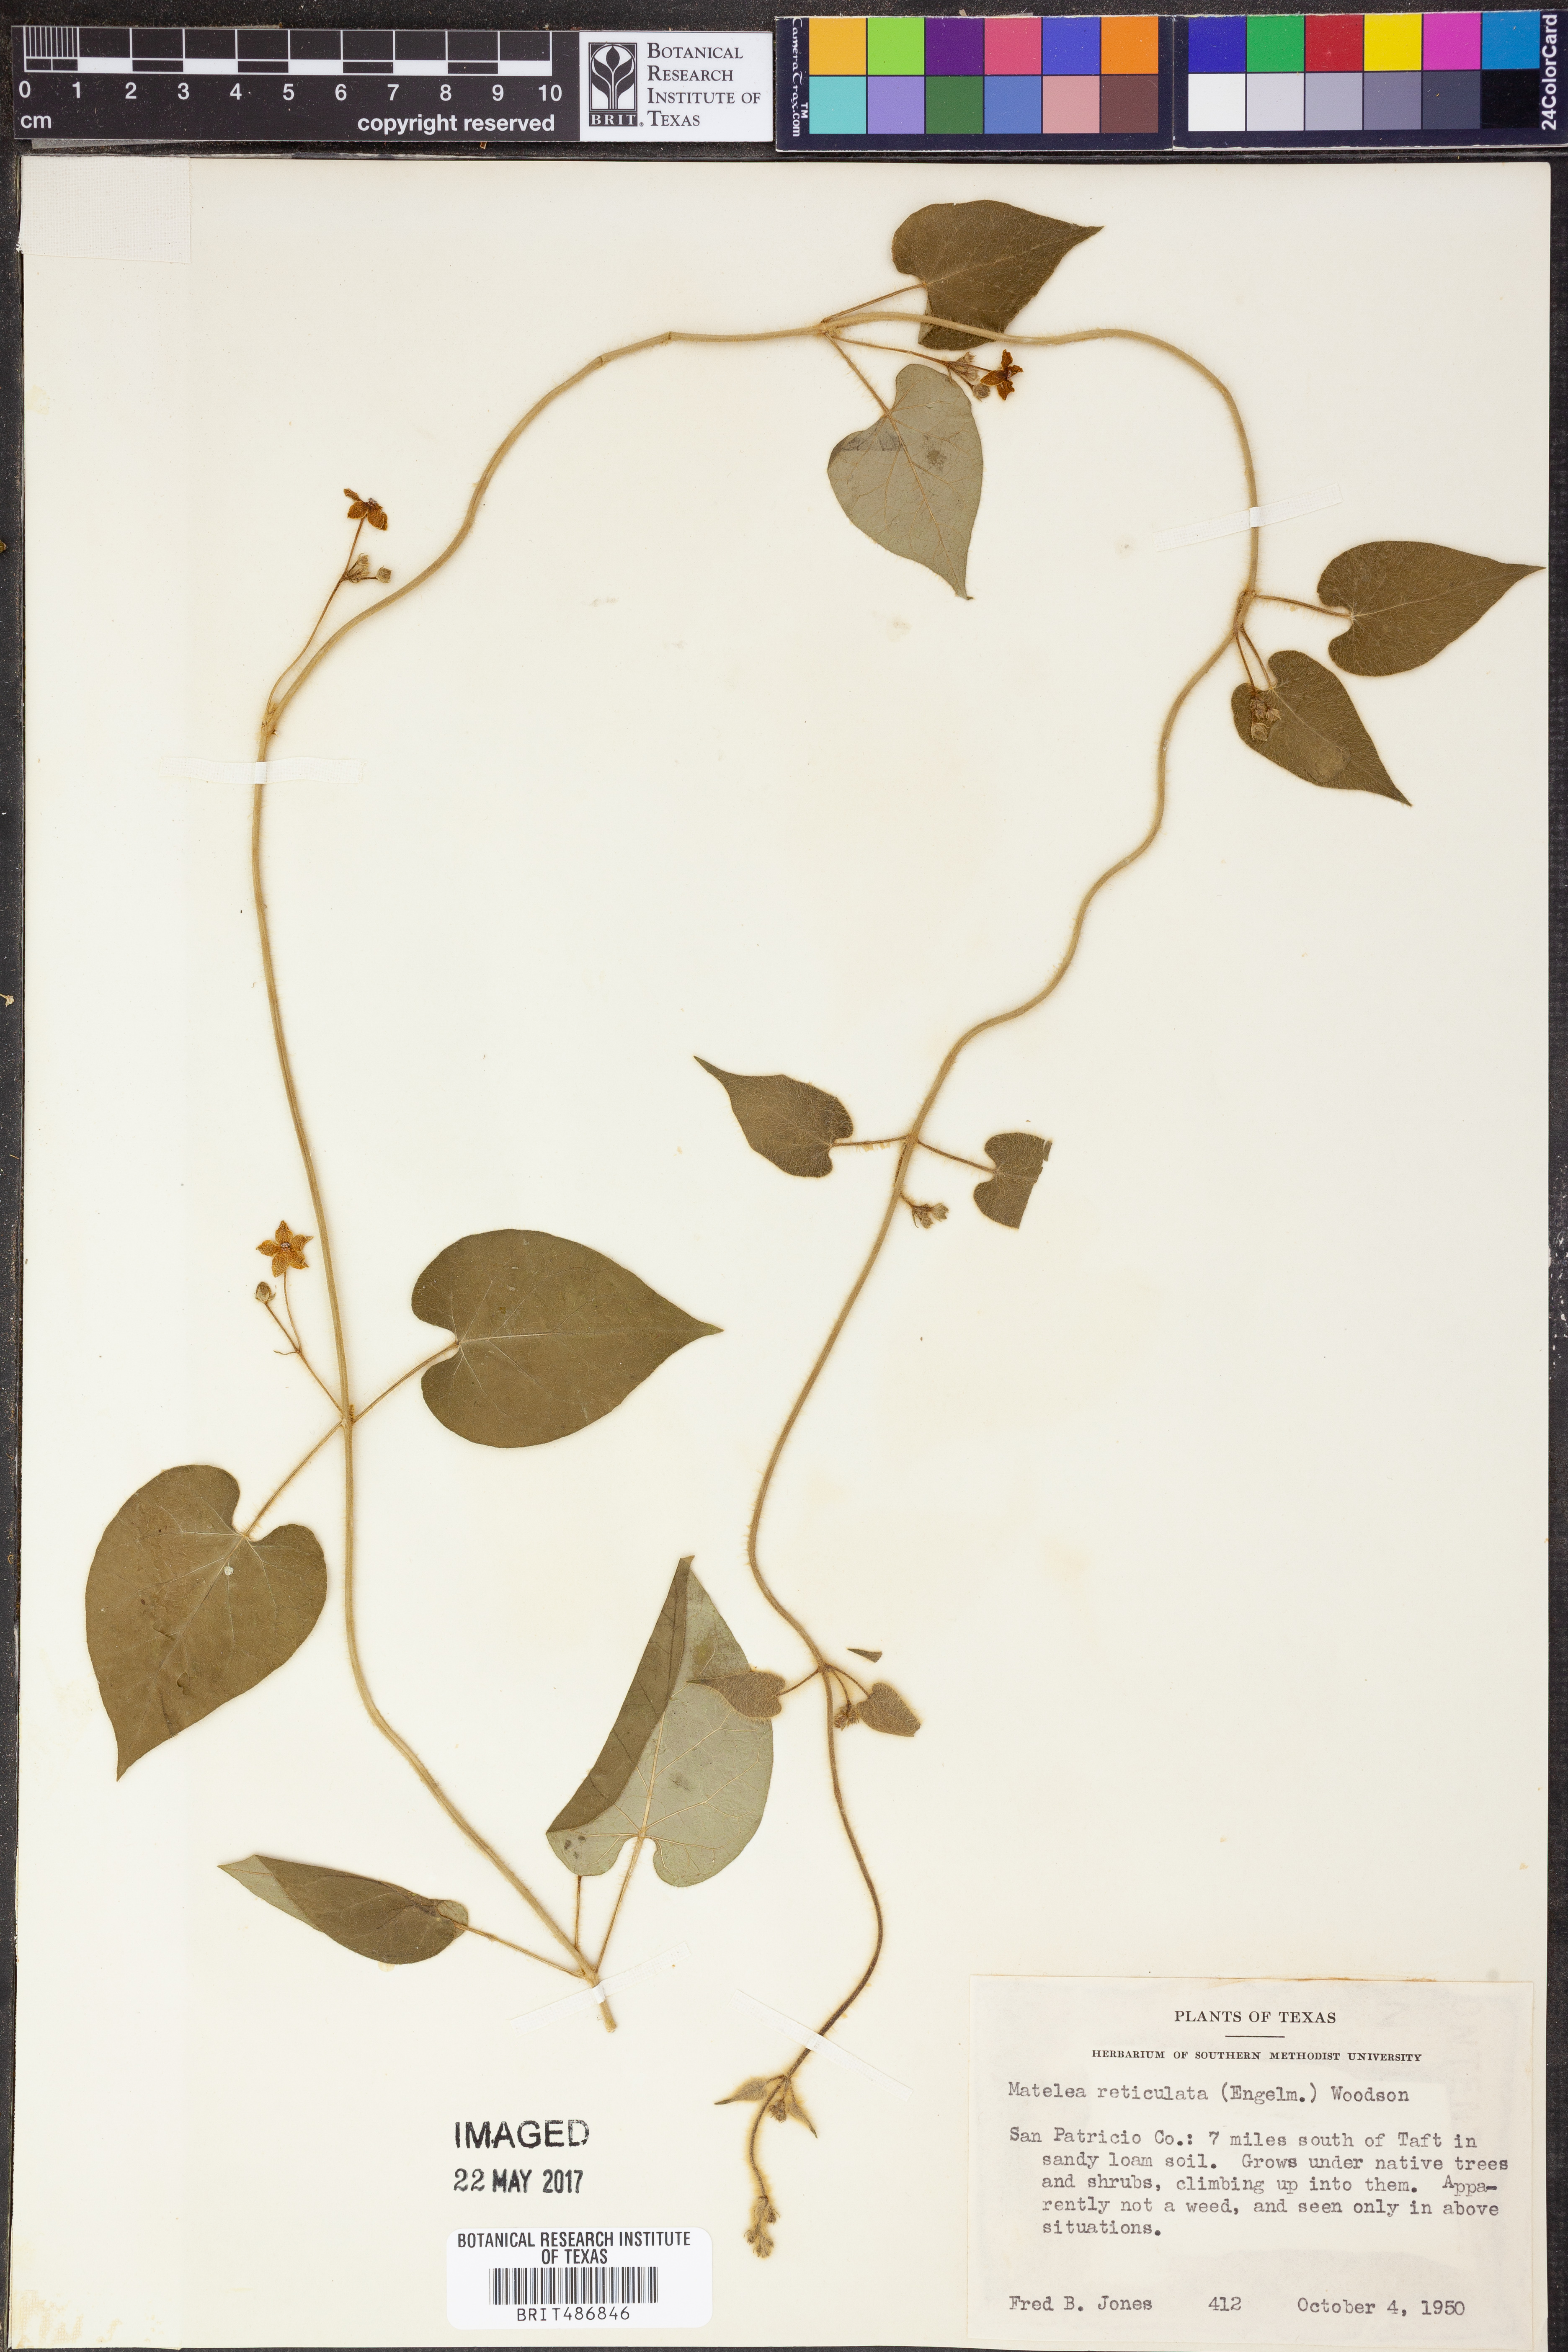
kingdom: Plantae
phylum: Tracheophyta
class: Magnoliopsida
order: Gentianales
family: Apocynaceae
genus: Dictyanthus
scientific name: Dictyanthus reticulatus
